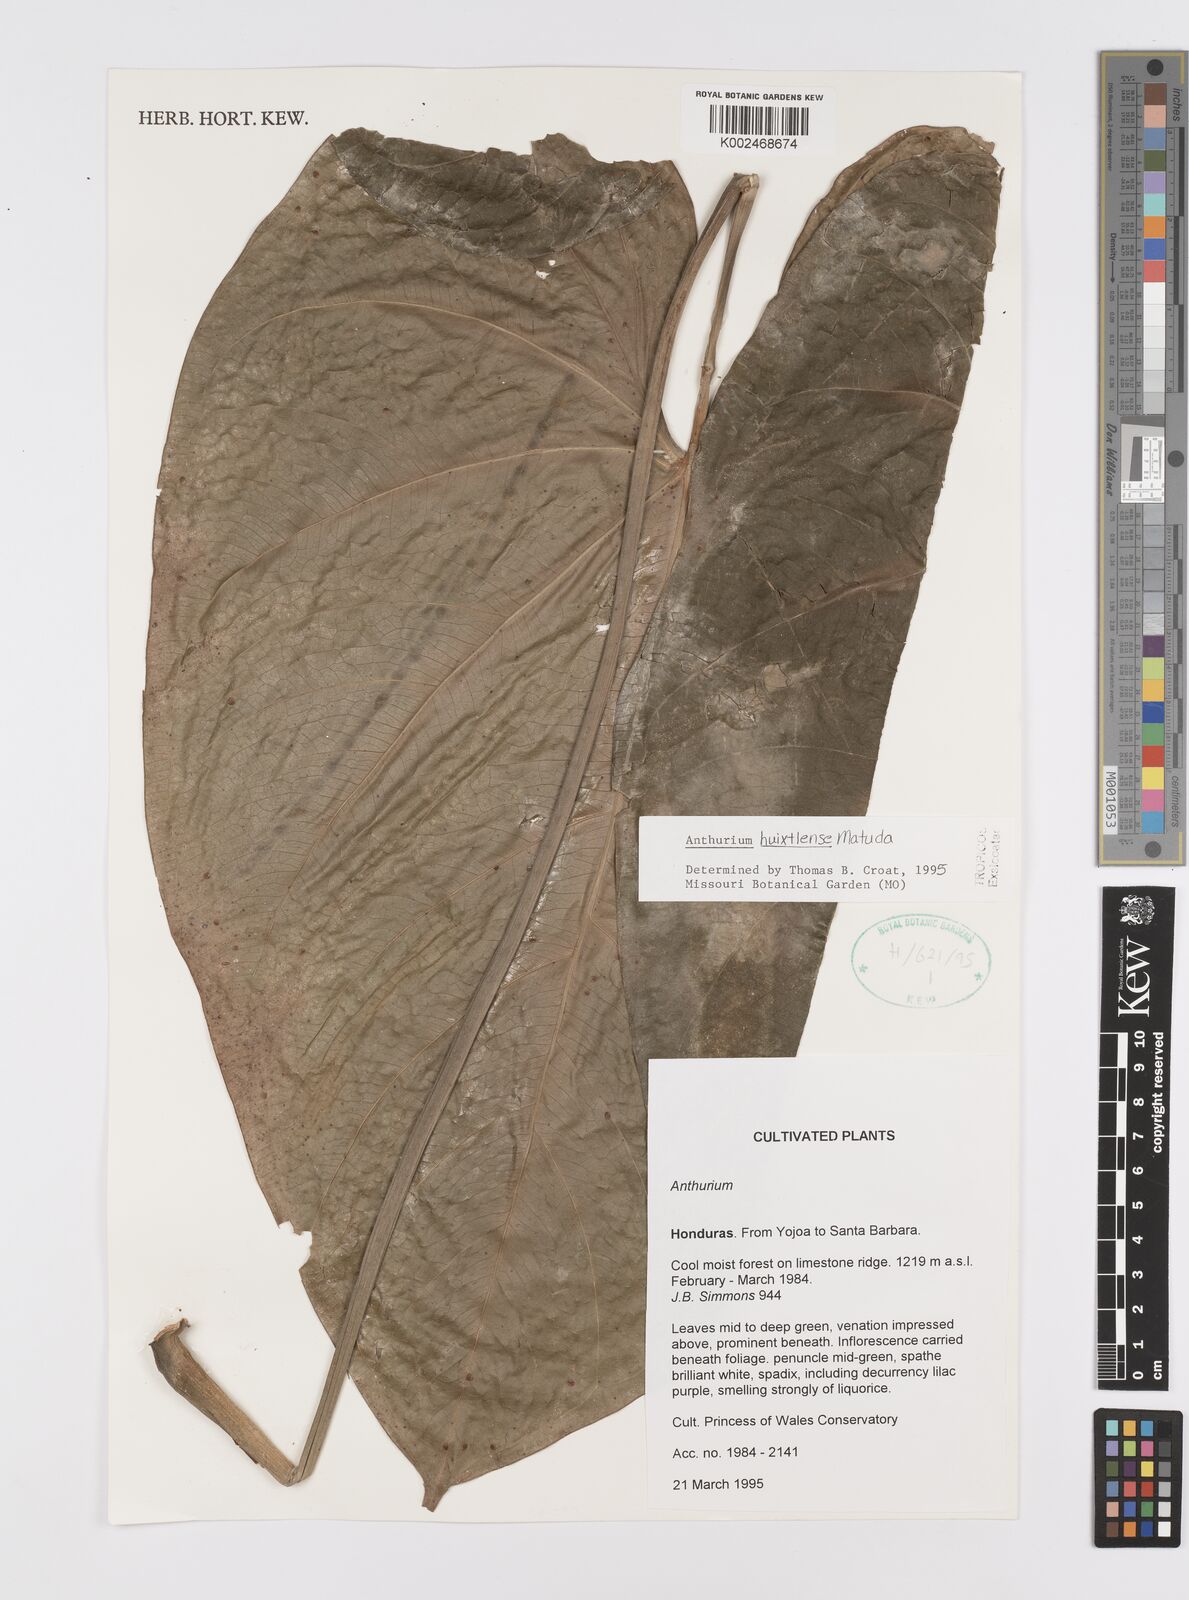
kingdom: Plantae
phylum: Tracheophyta
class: Liliopsida
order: Alismatales
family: Araceae
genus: Anthurium
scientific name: Anthurium huixtlense
